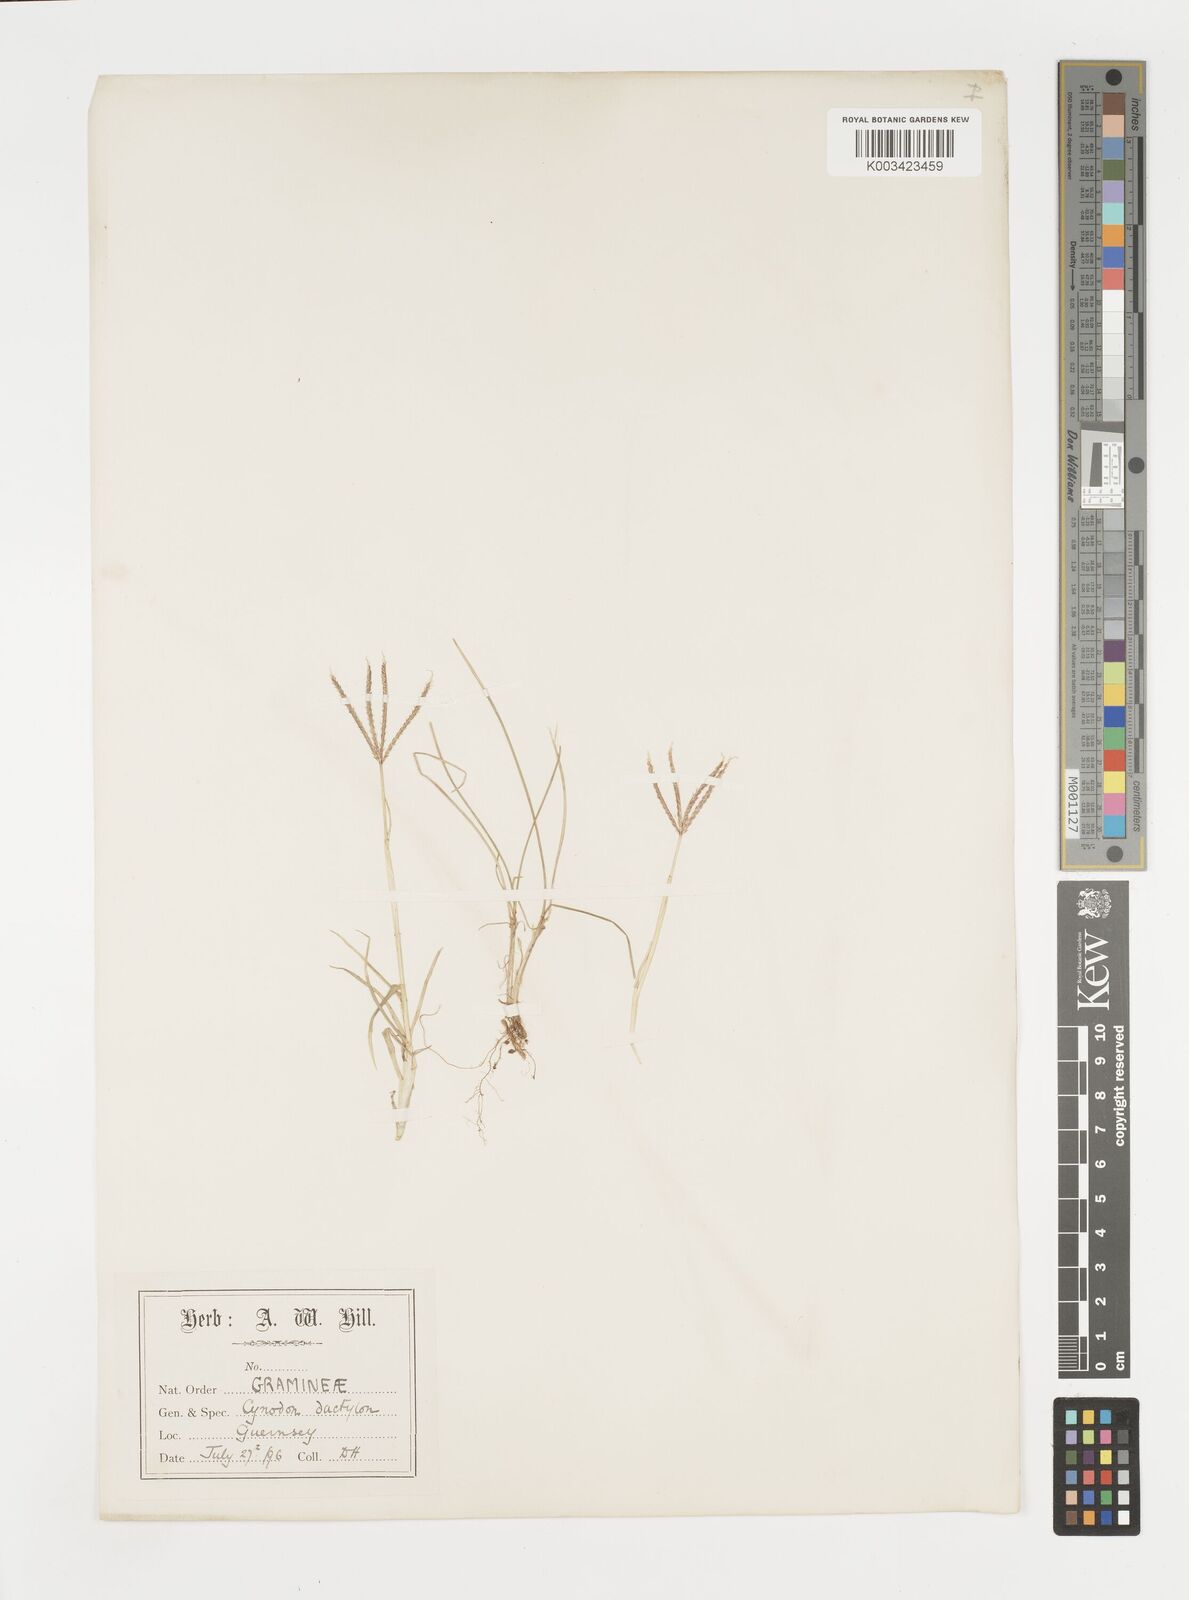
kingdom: Plantae
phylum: Tracheophyta
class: Liliopsida
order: Poales
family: Poaceae
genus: Cynodon
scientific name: Cynodon dactylon
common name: Bermuda grass
